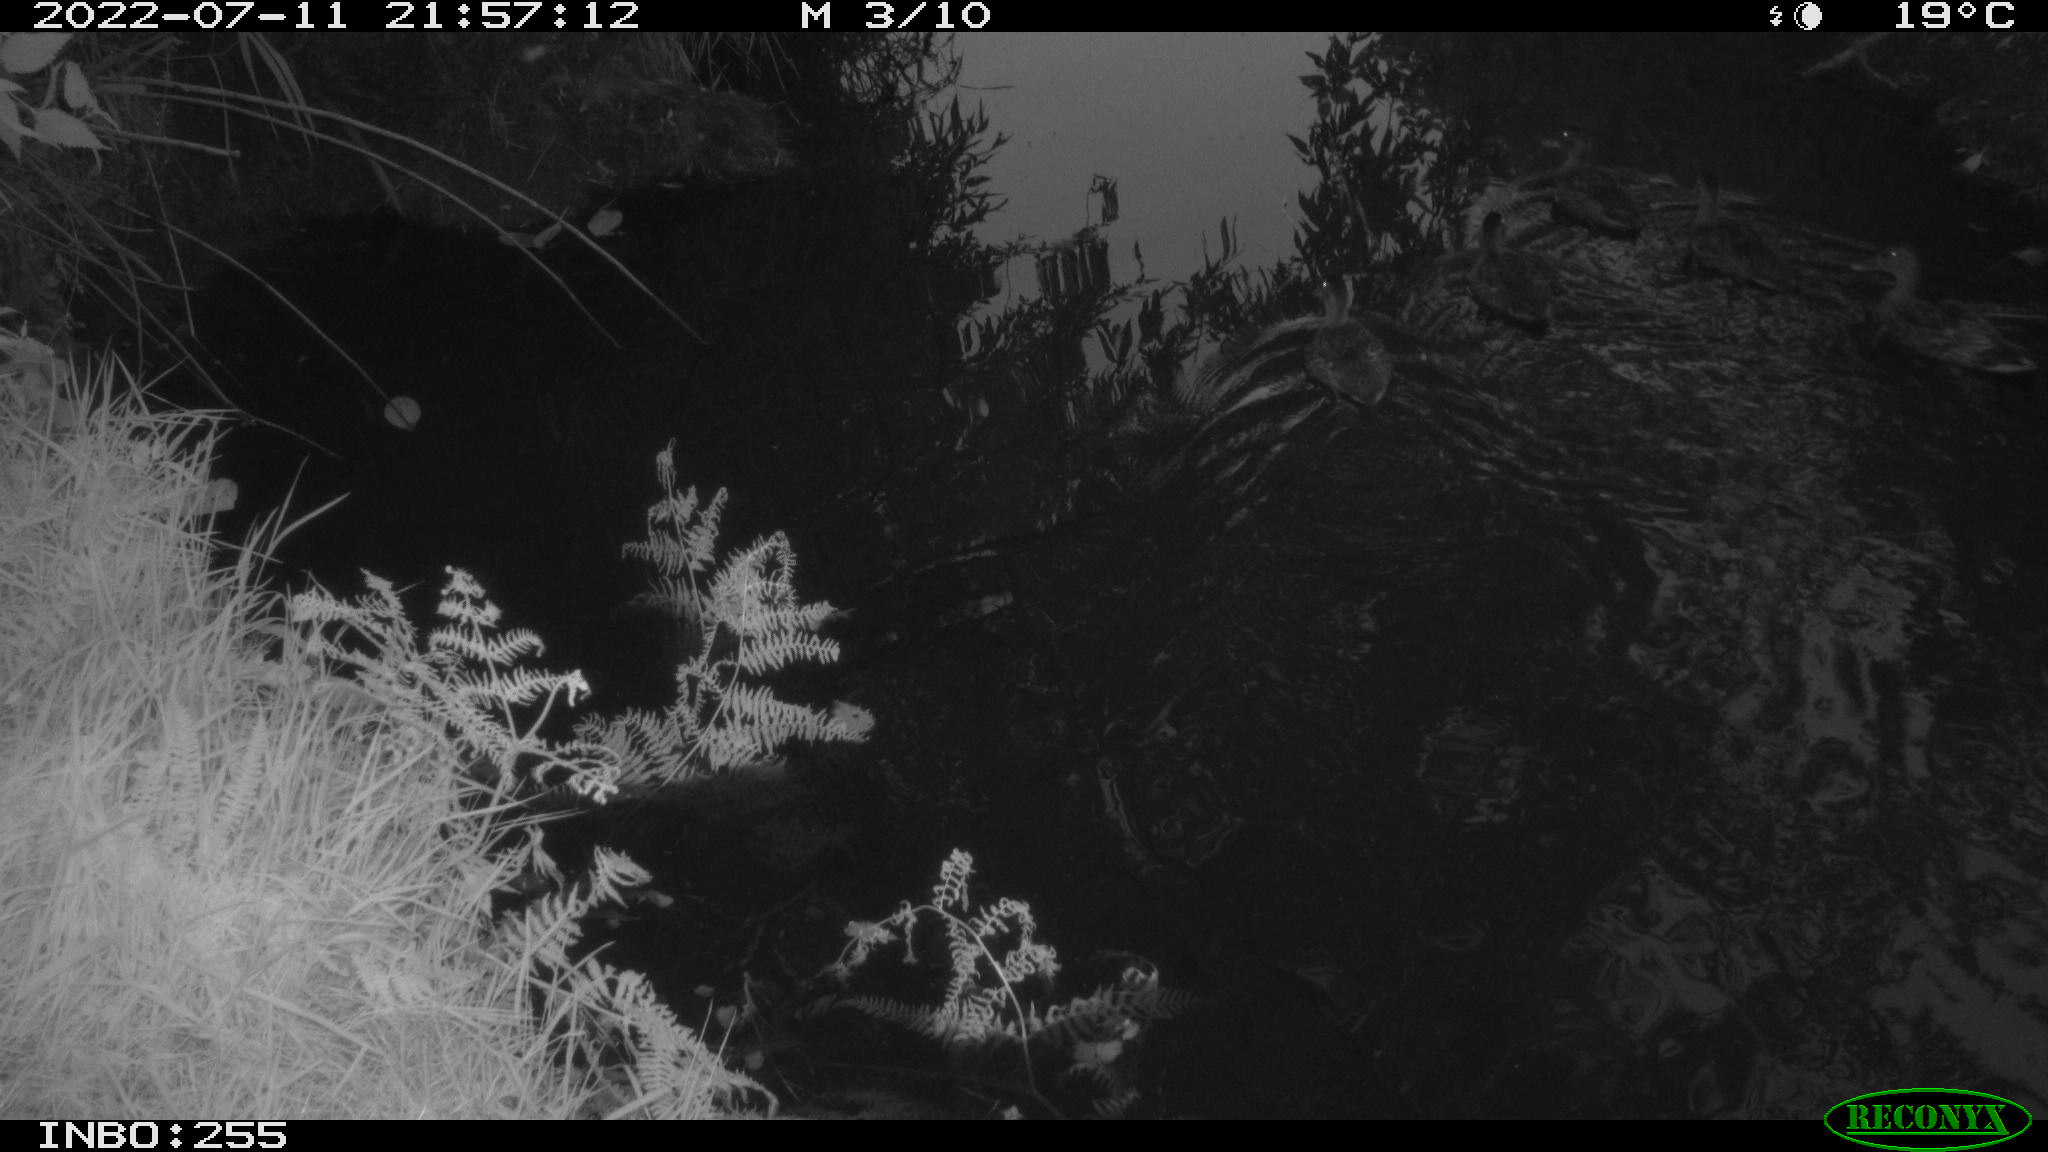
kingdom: Animalia
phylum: Chordata
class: Aves
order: Anseriformes
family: Anatidae
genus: Anas
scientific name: Anas platyrhynchos
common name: Mallard
